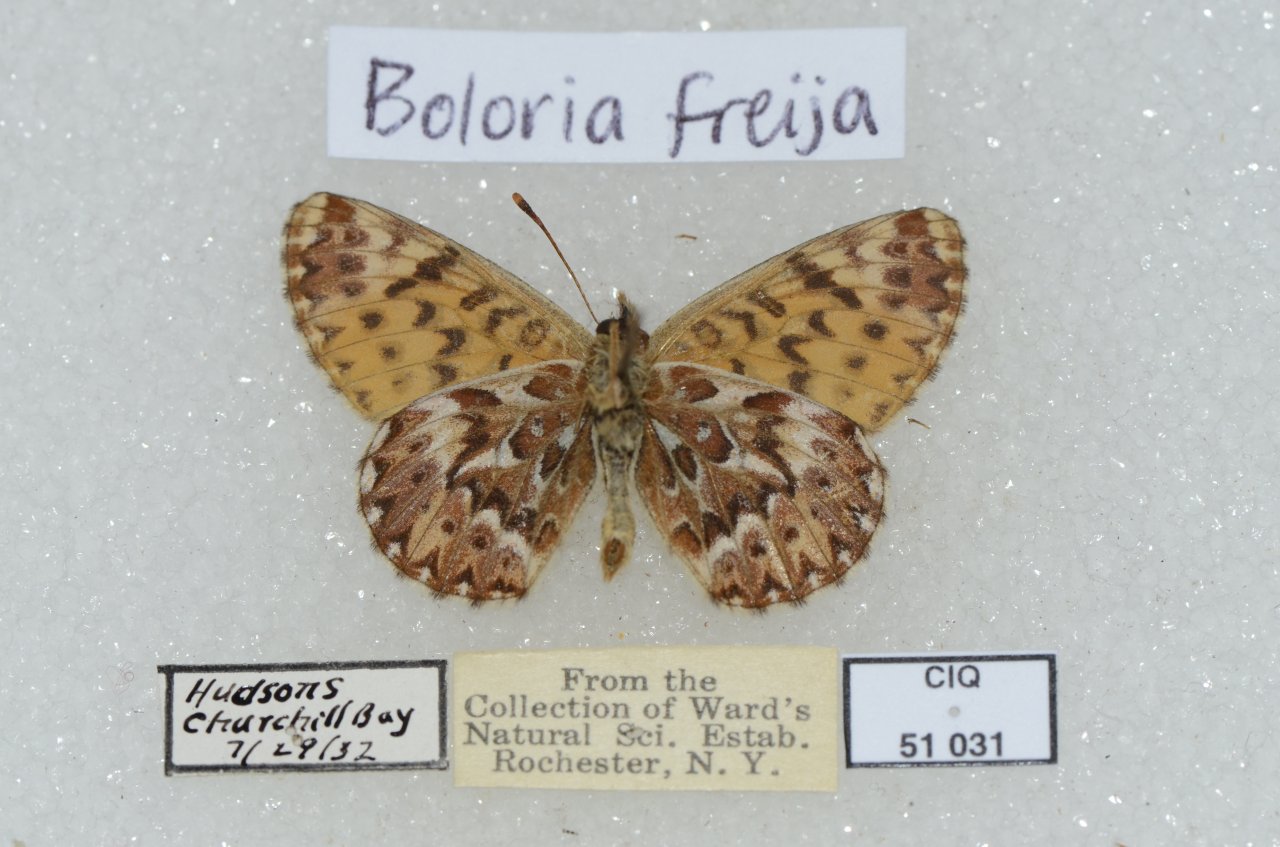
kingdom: Animalia
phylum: Arthropoda
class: Insecta
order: Lepidoptera
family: Nymphalidae
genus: Boloria
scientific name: Boloria chariclea
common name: Arctic Fritillary
